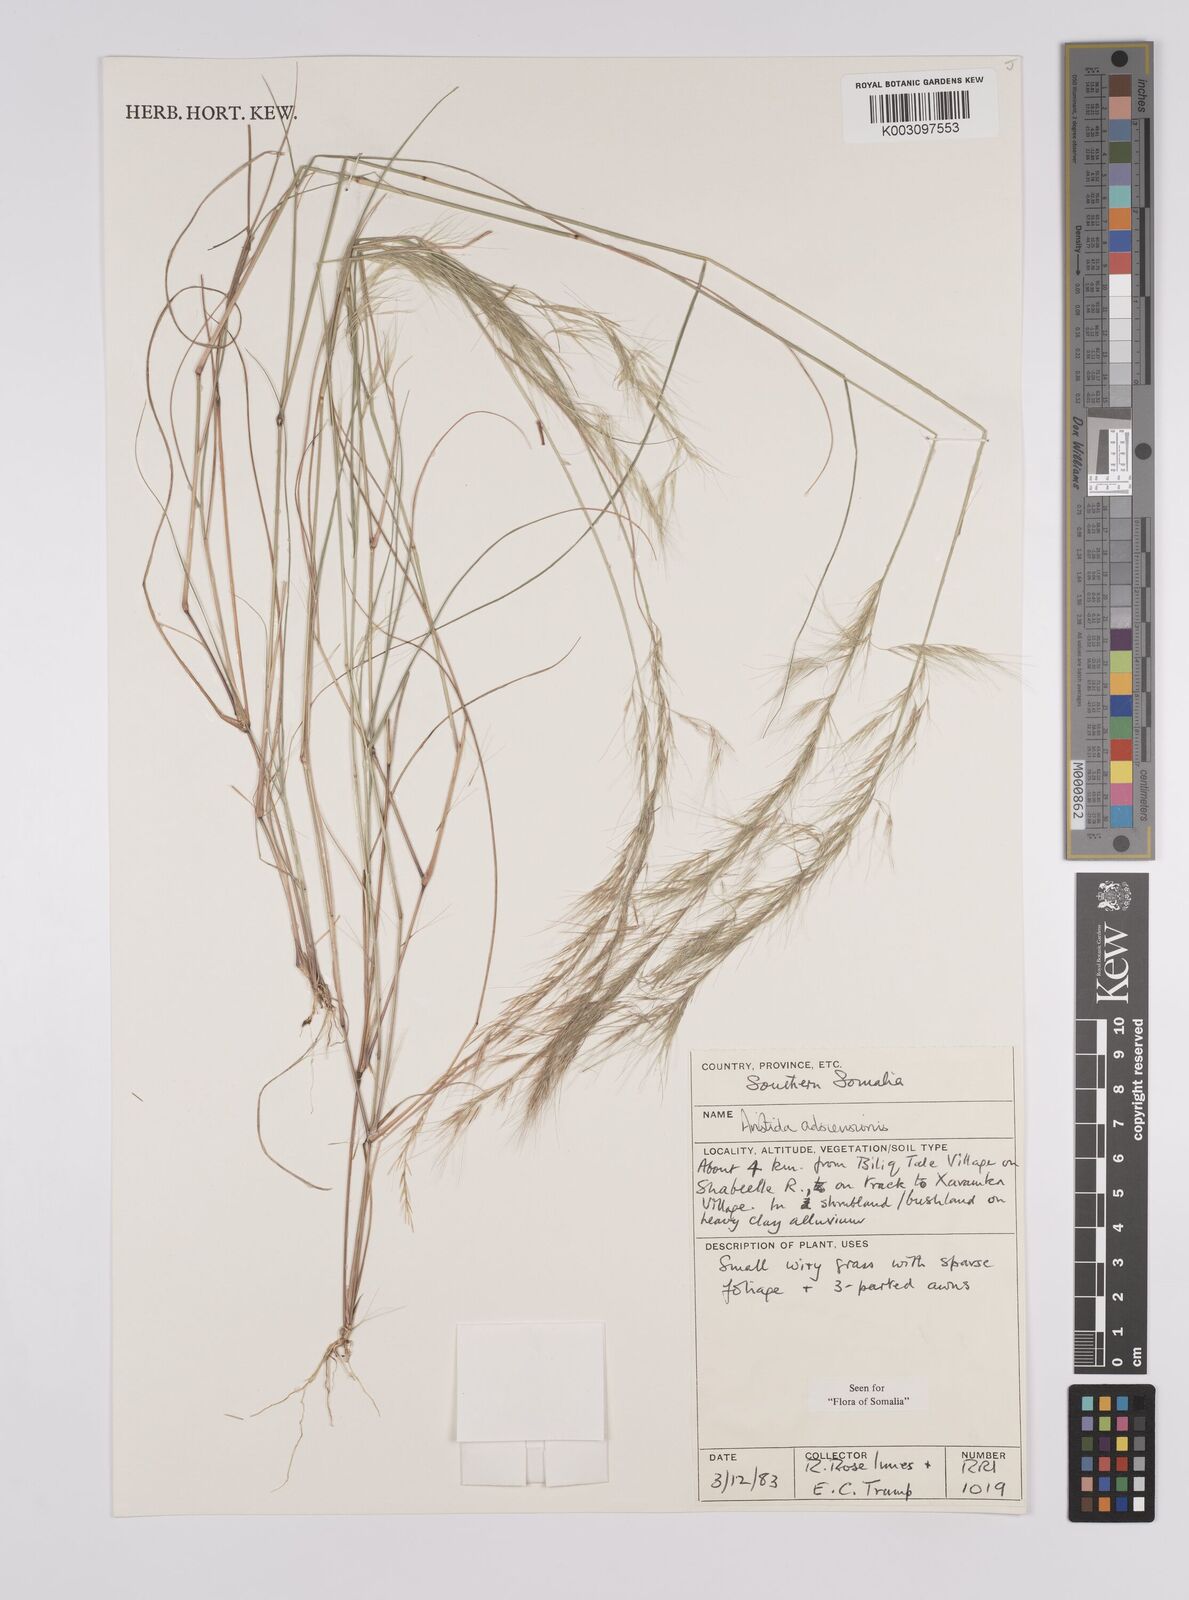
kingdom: Plantae
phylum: Tracheophyta
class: Liliopsida
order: Poales
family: Poaceae
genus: Aristida
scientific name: Aristida adscensionis
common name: Sixweeks threeawn
